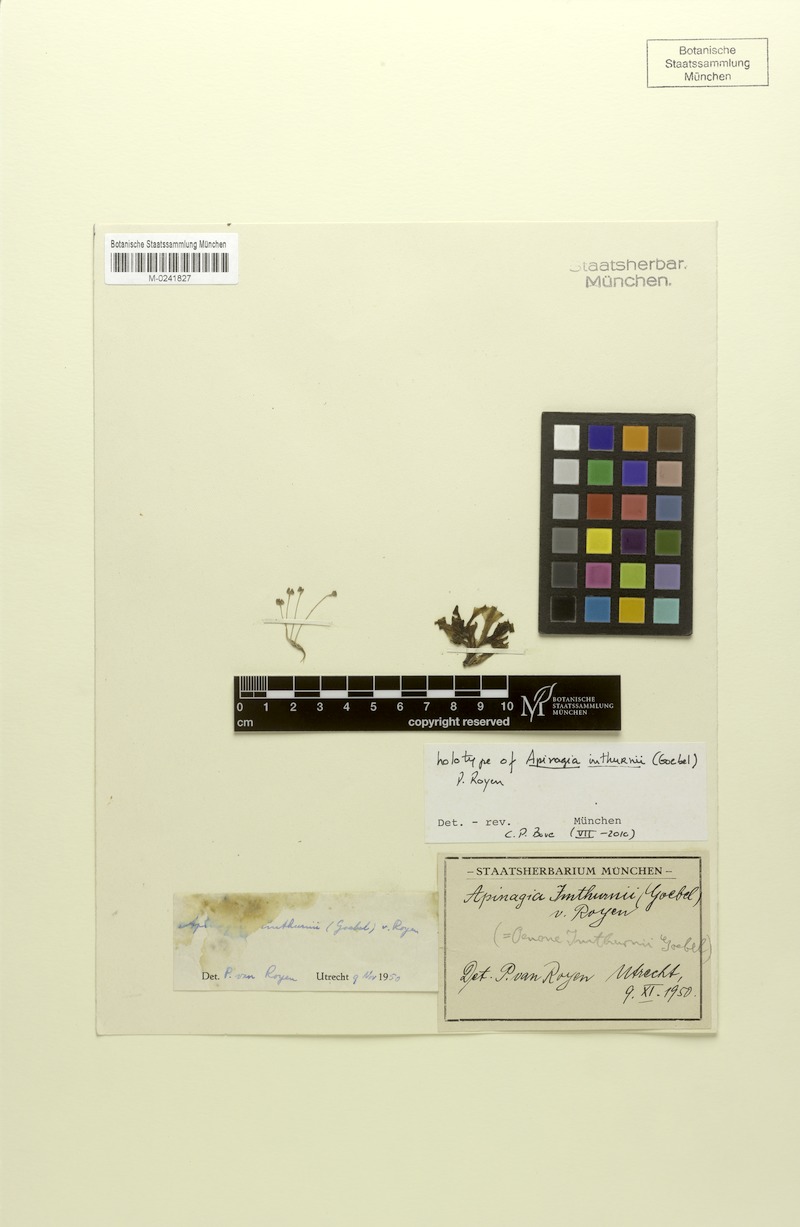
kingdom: Plantae
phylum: Tracheophyta
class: Magnoliopsida
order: Malpighiales
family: Podostemaceae
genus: Apinagia
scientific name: Apinagia guyanensis
